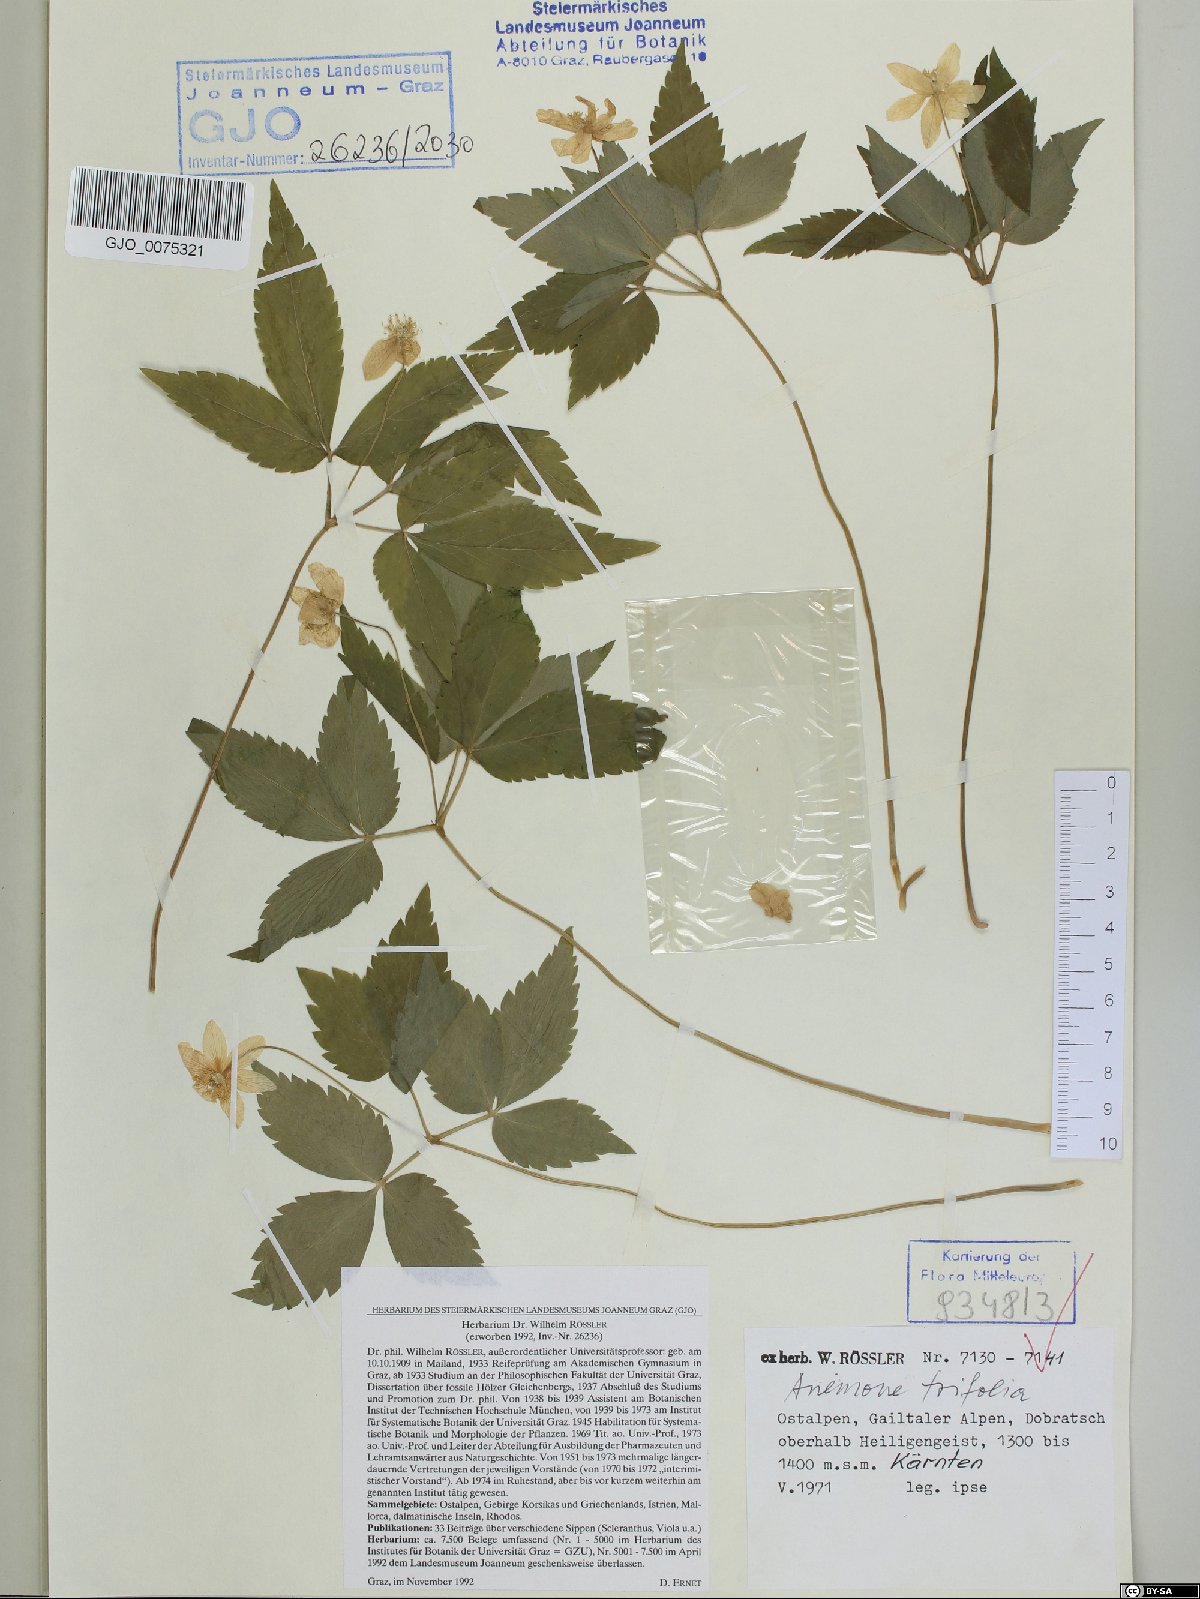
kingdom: Plantae
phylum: Tracheophyta
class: Magnoliopsida
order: Ranunculales
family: Ranunculaceae
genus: Anemone
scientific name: Anemone trifolia
